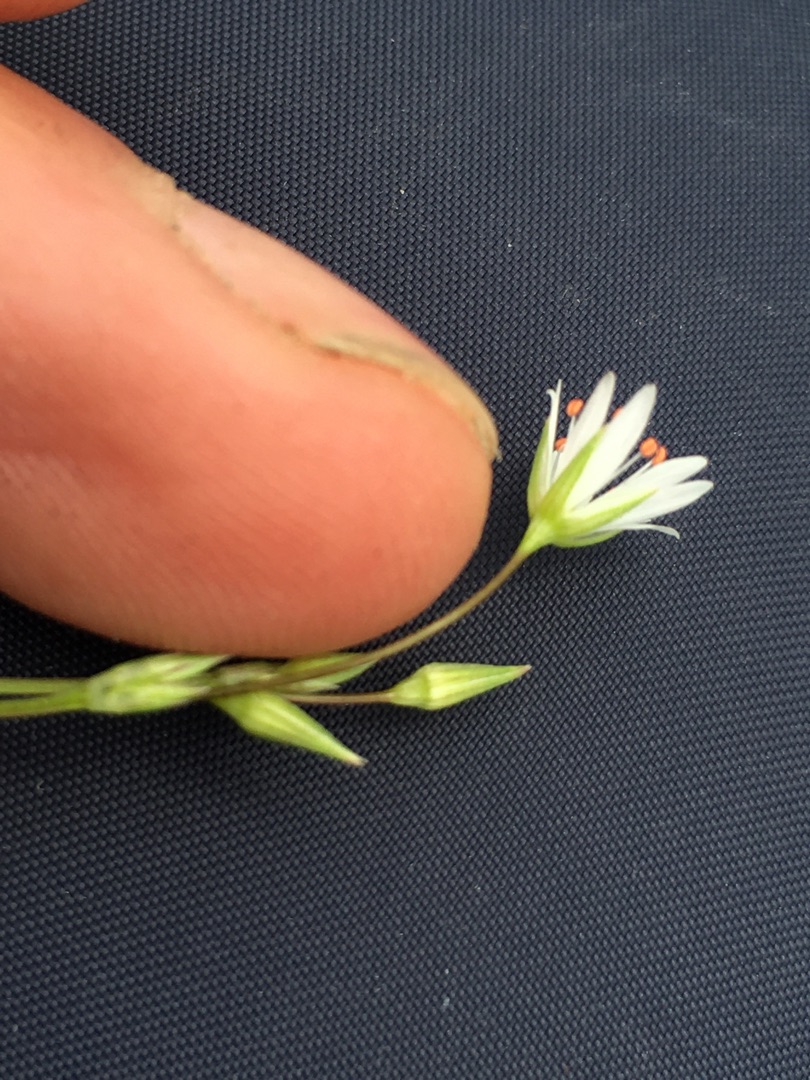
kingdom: Plantae
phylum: Tracheophyta
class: Magnoliopsida
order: Caryophyllales
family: Caryophyllaceae
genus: Stellaria
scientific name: Stellaria graminea
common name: Græsbladet fladstjerne
